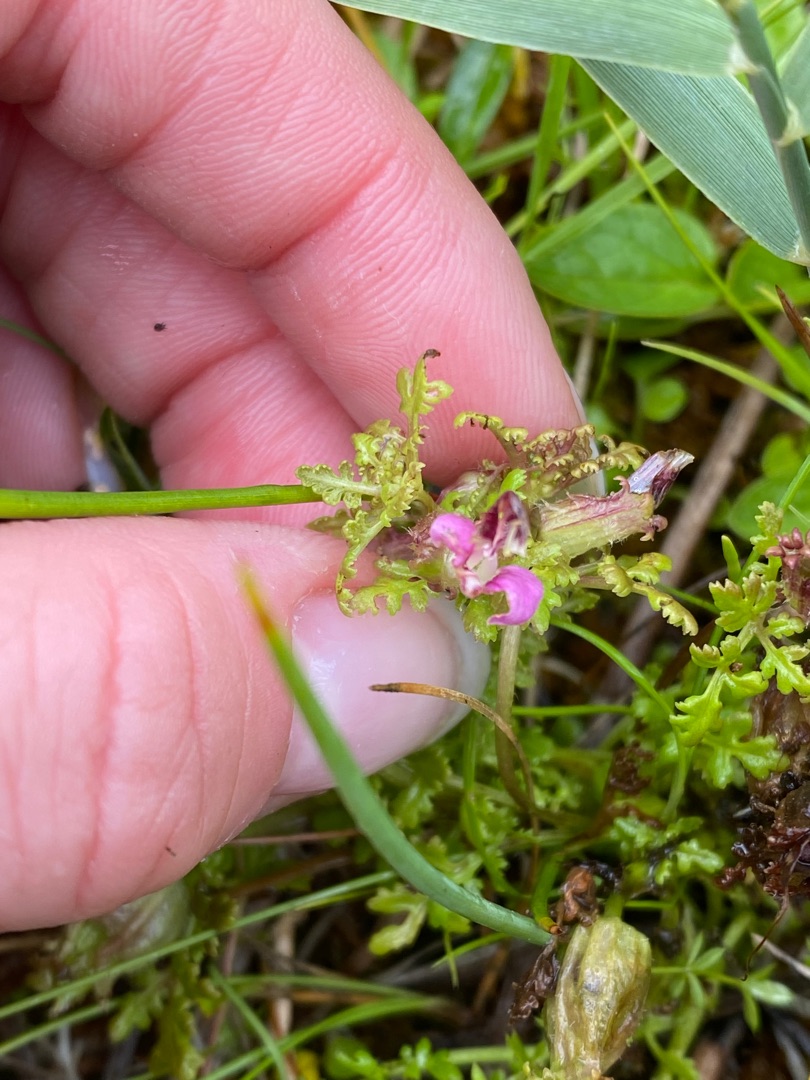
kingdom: Plantae
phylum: Tracheophyta
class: Magnoliopsida
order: Lamiales
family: Orobanchaceae
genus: Pedicularis
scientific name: Pedicularis palustris
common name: Eng-troldurt
